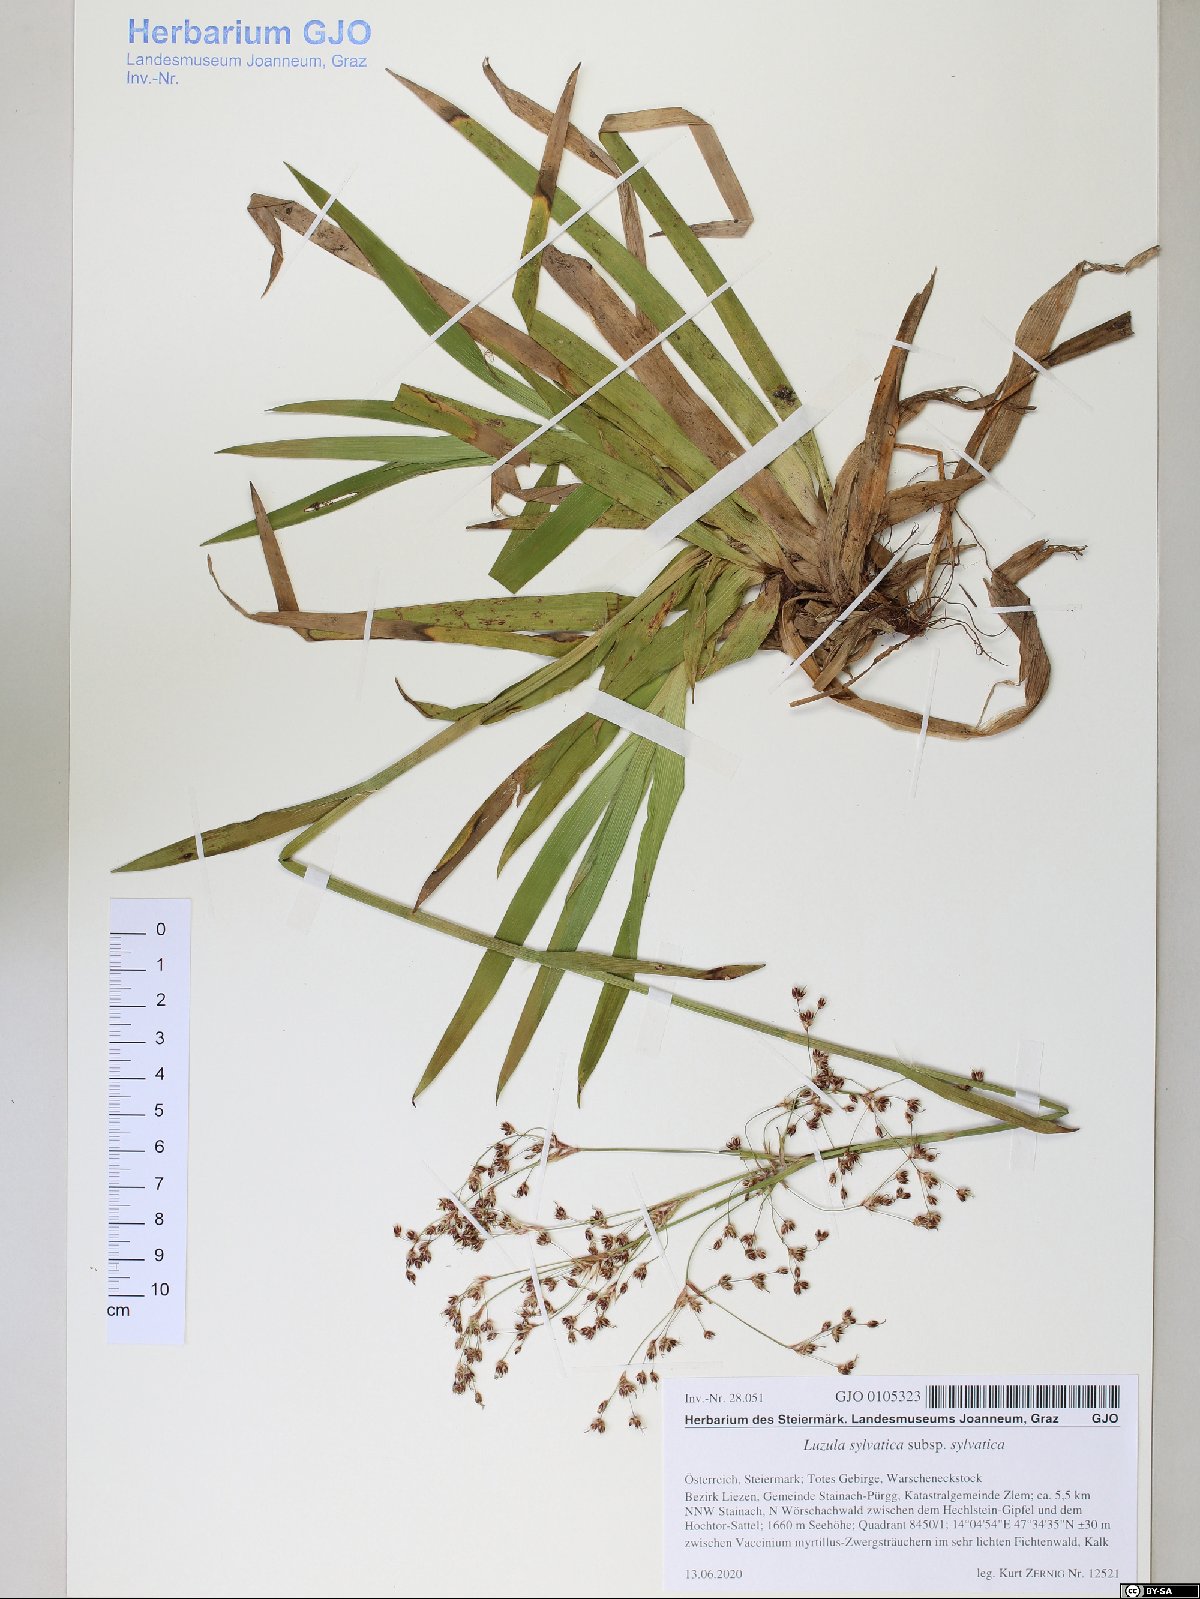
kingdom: Plantae
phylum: Tracheophyta
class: Liliopsida
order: Poales
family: Juncaceae
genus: Luzula
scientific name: Luzula sylvatica
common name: Great wood-rush
